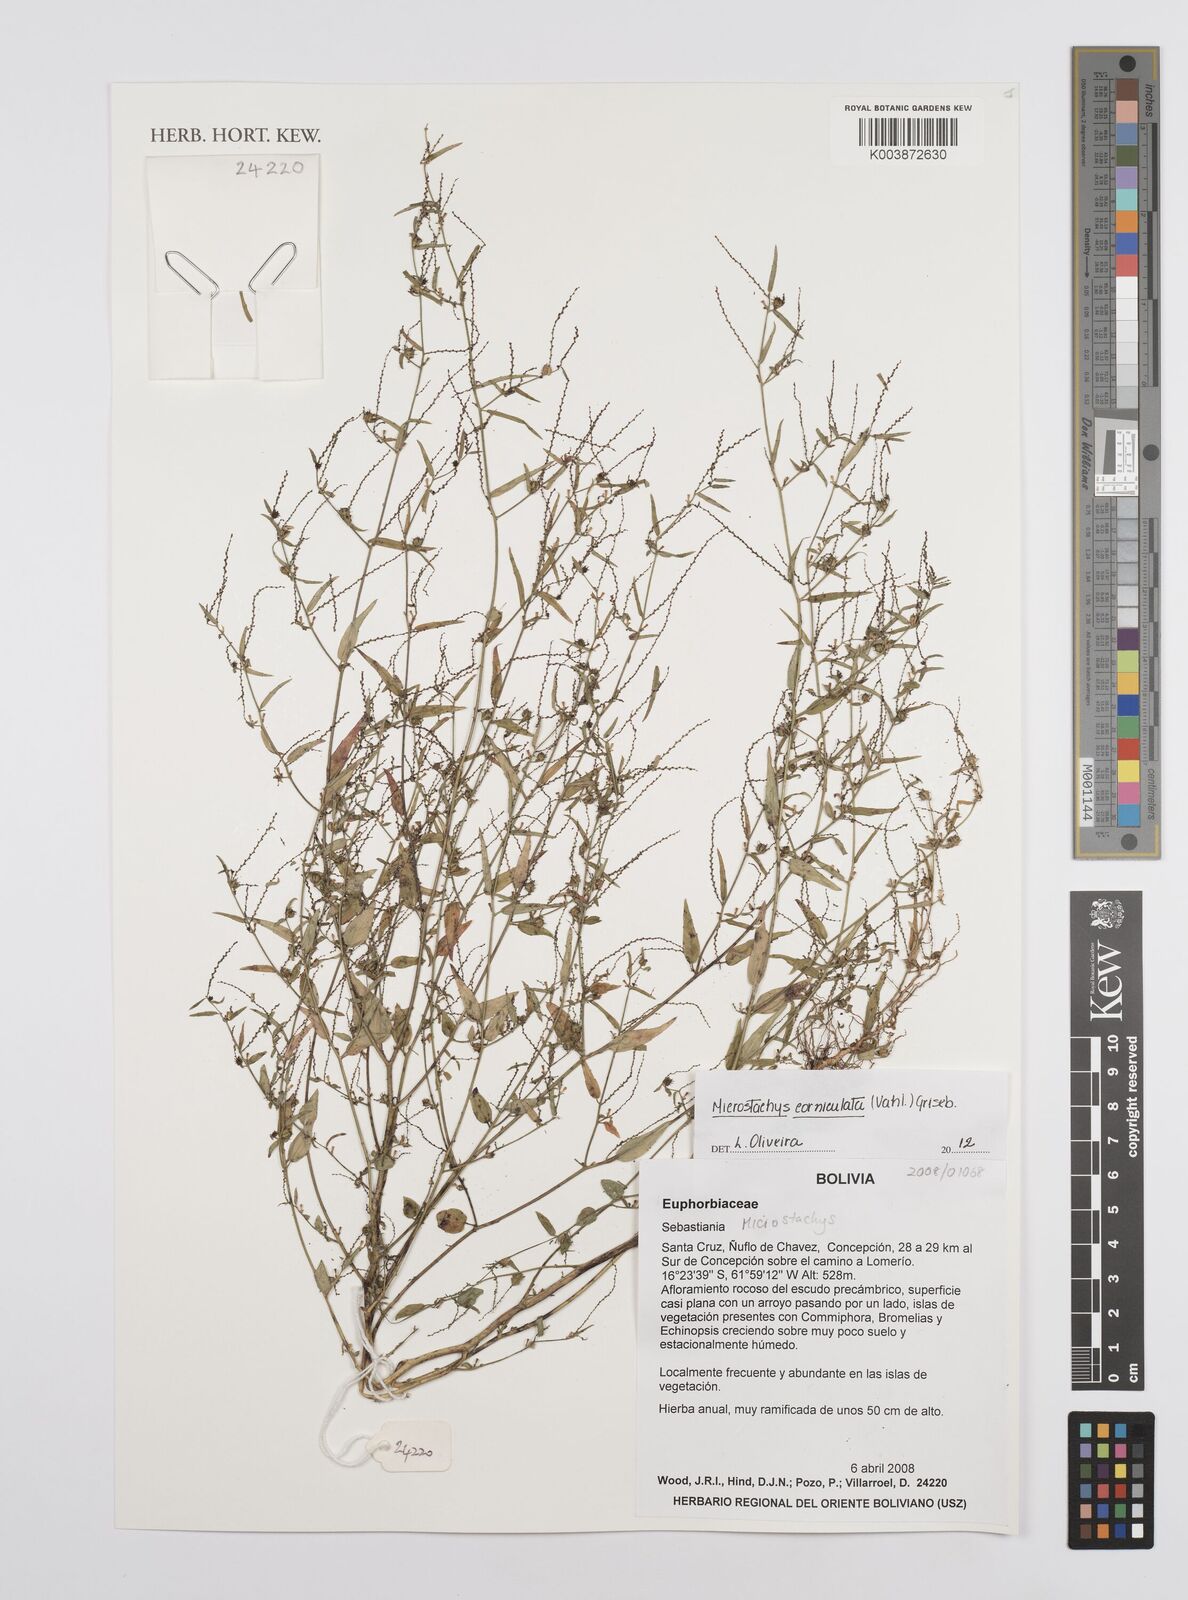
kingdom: Plantae
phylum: Tracheophyta
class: Magnoliopsida
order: Malpighiales
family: Euphorbiaceae
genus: Microstachys
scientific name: Microstachys corniculata
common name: Hato tejas
